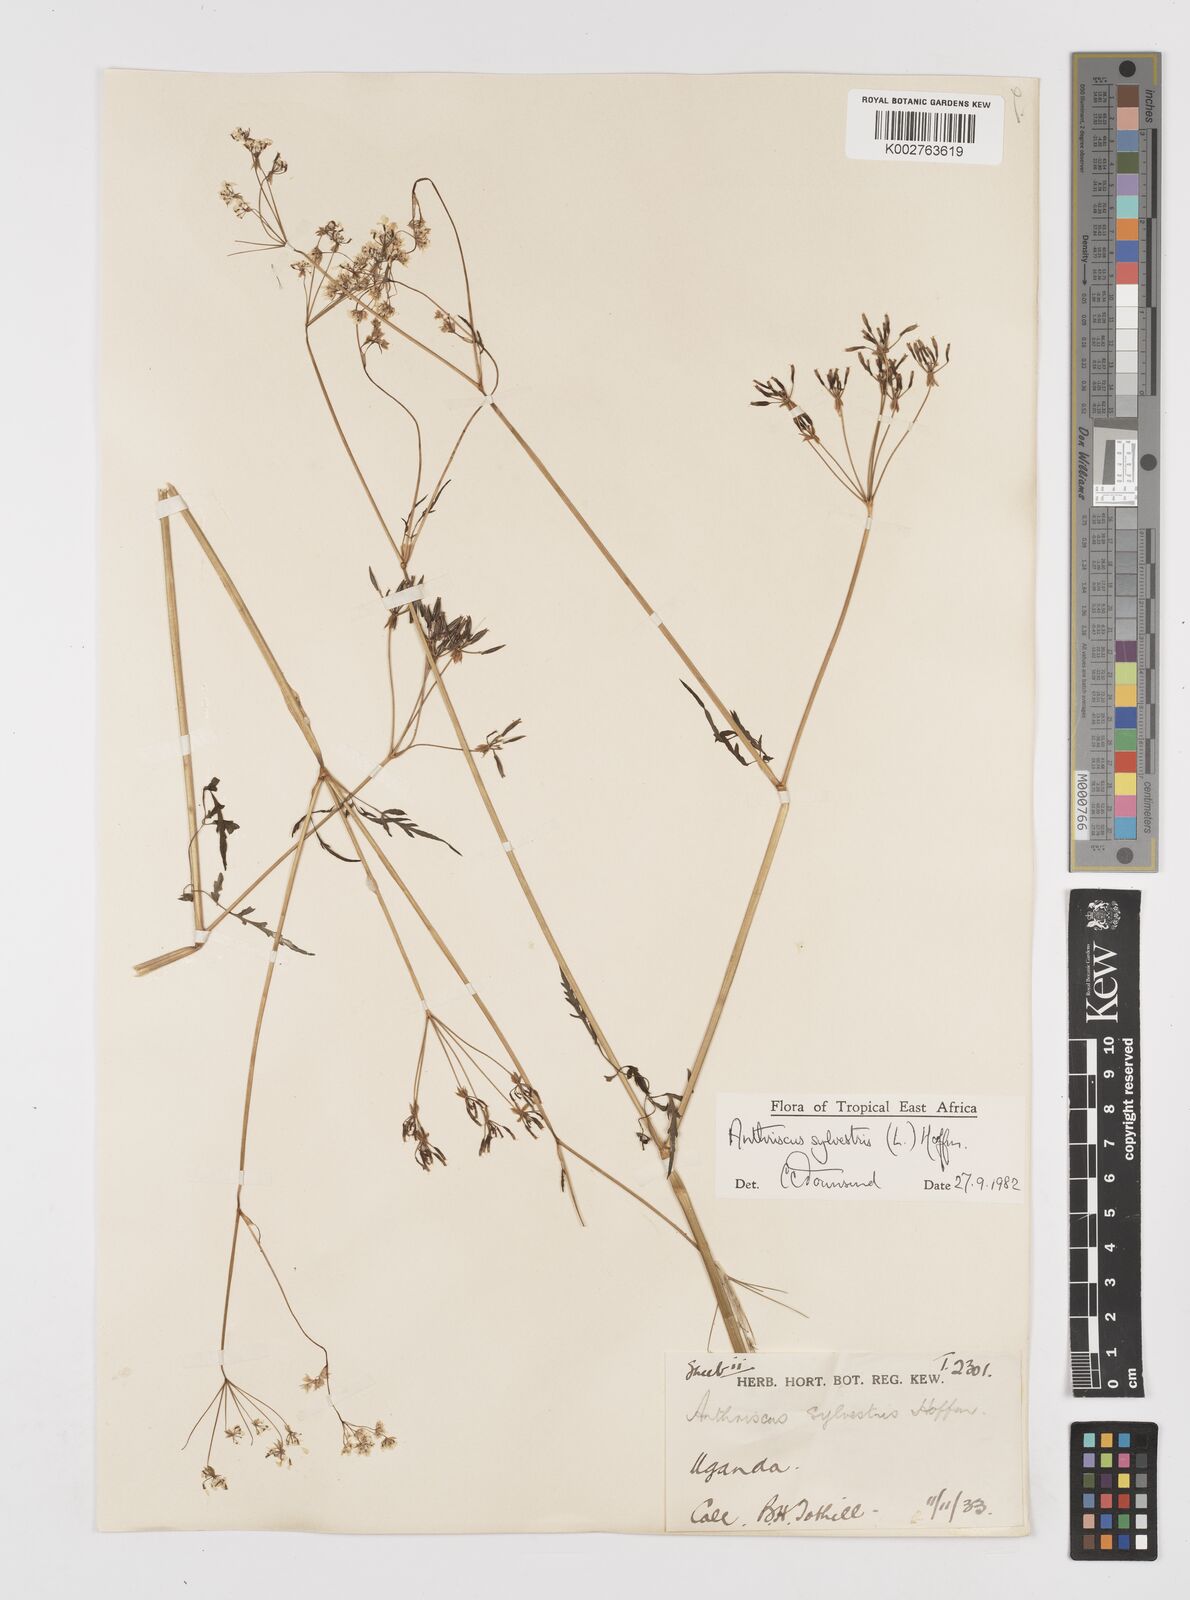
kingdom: Plantae
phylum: Tracheophyta
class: Magnoliopsida
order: Apiales
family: Apiaceae
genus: Anthriscus
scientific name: Anthriscus sylvestris
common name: Cow parsley
